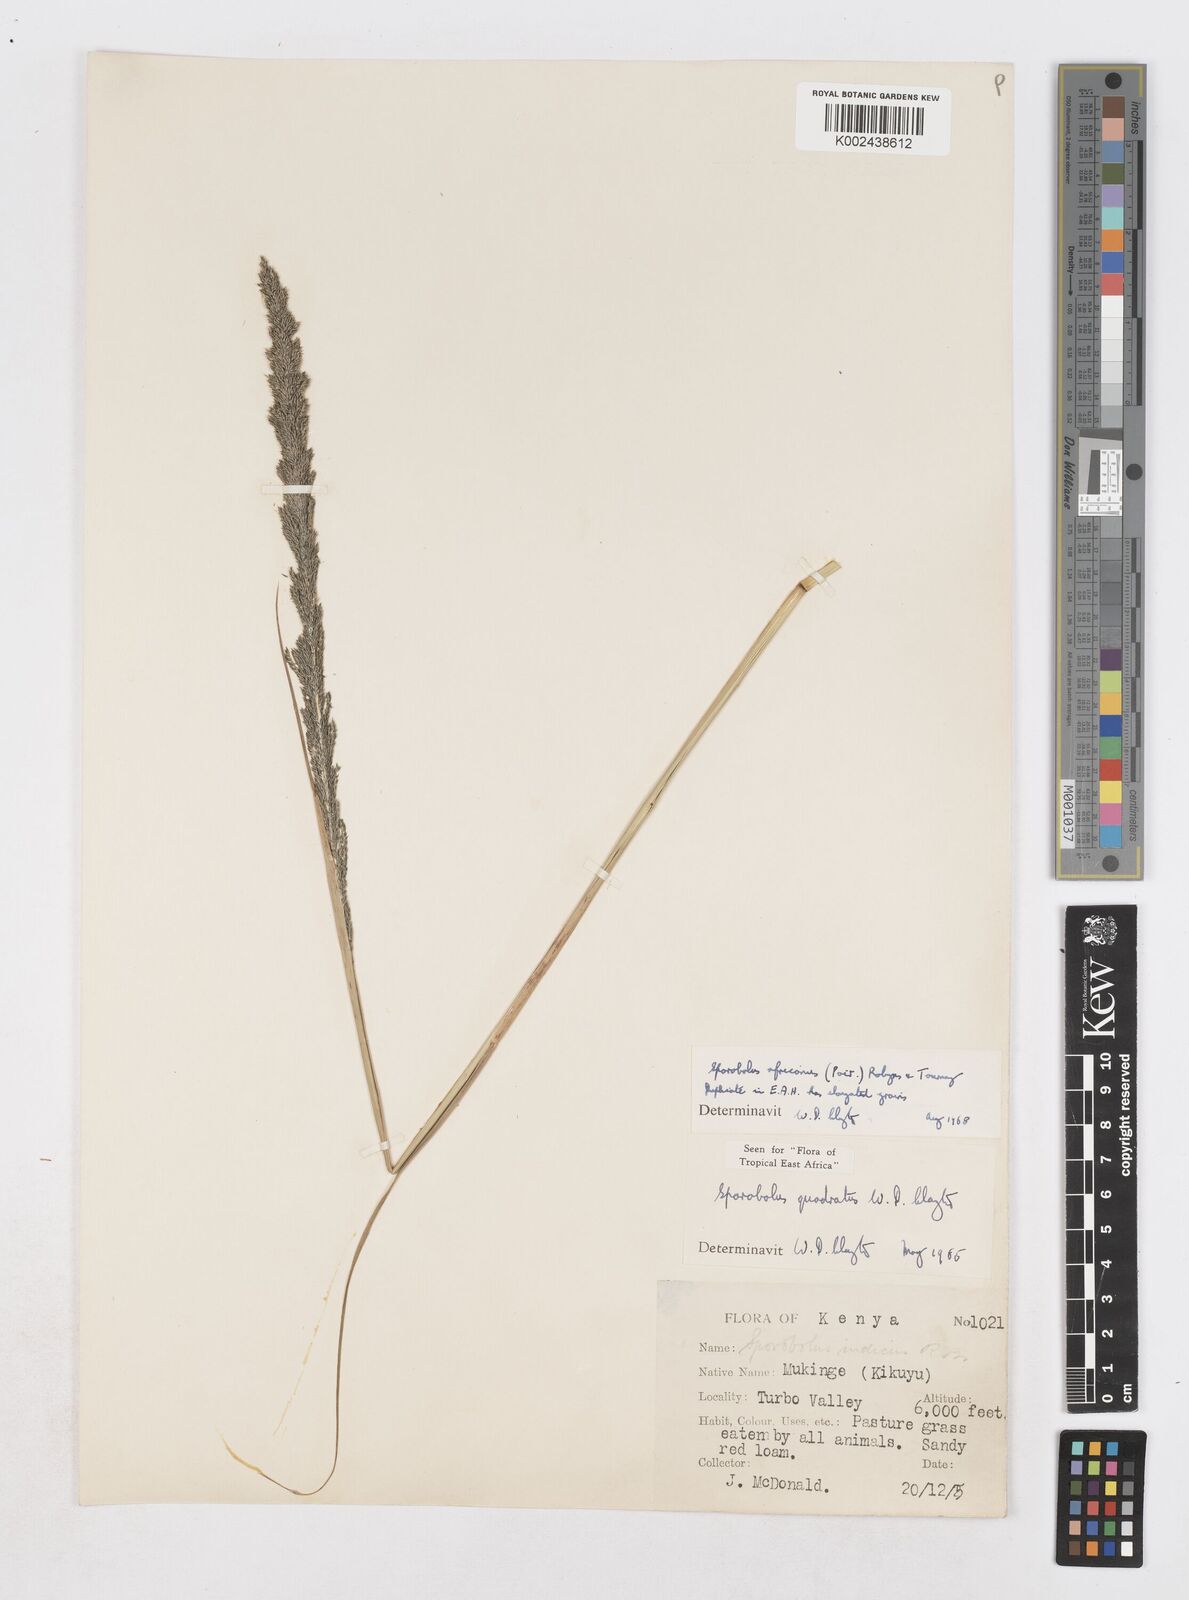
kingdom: Plantae
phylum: Tracheophyta
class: Liliopsida
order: Poales
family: Poaceae
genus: Sporobolus
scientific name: Sporobolus africanus
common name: African dropseed
